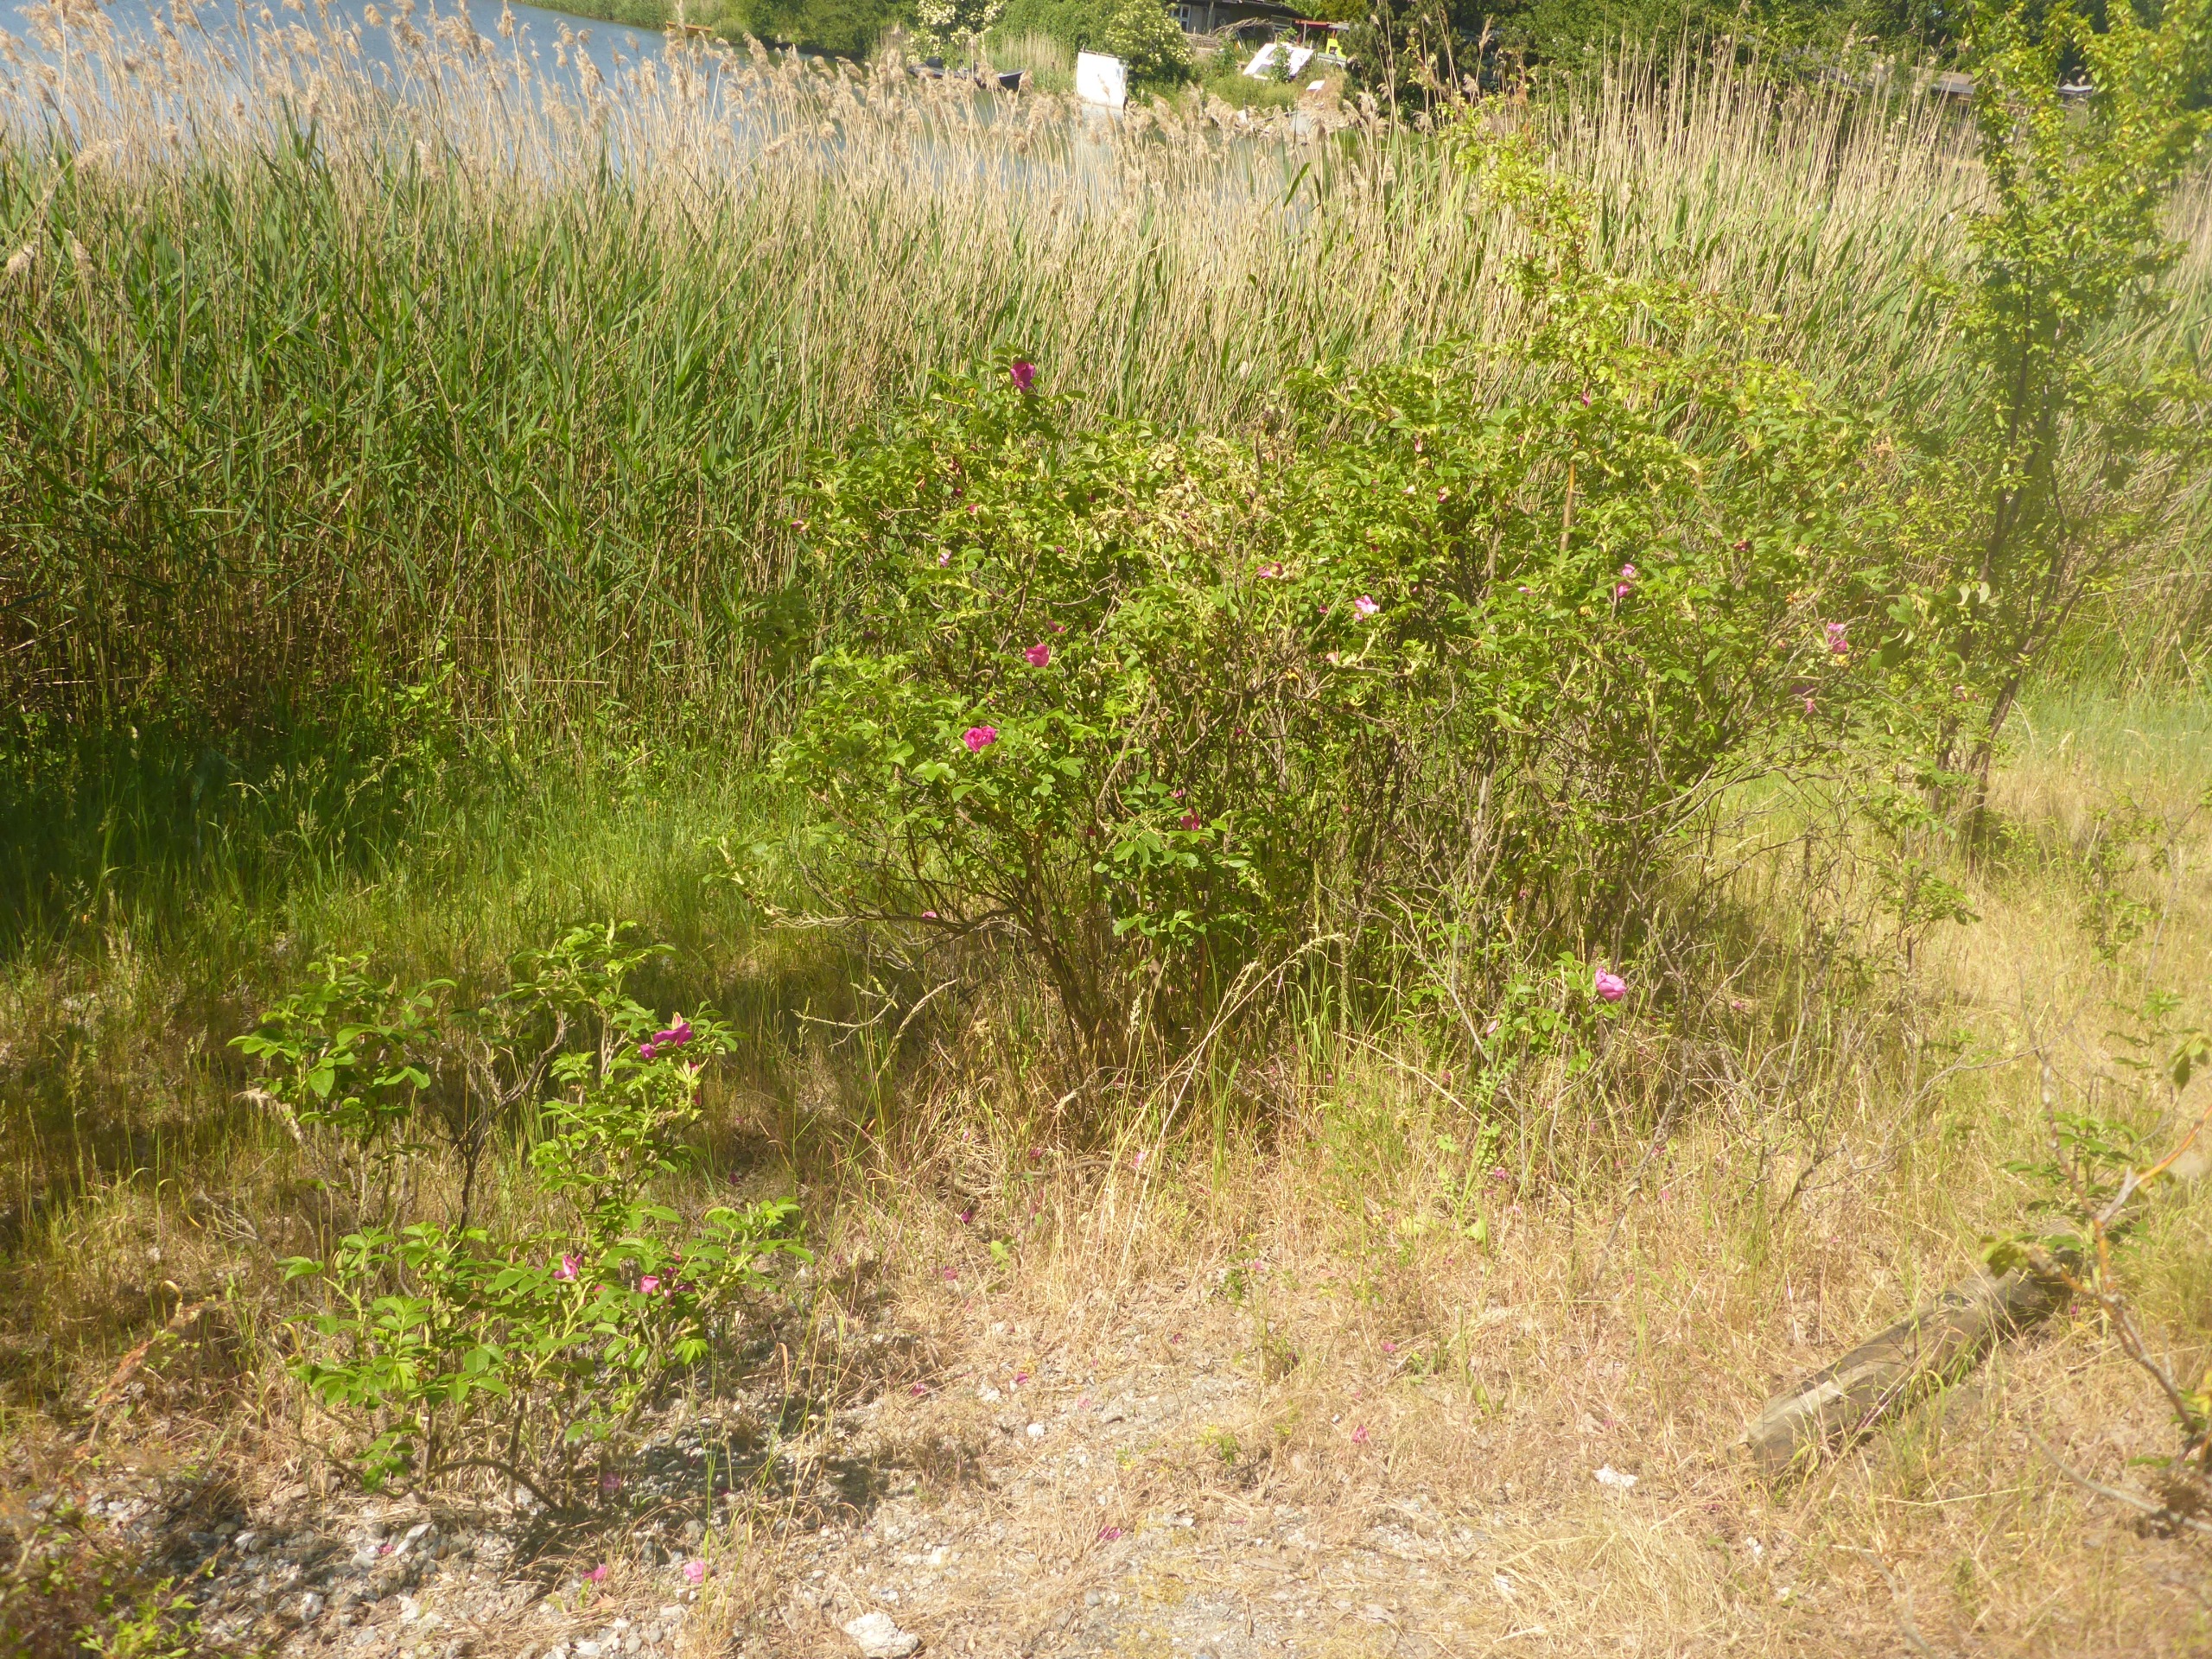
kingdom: Plantae
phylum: Tracheophyta
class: Magnoliopsida
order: Rosales
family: Rosaceae
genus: Rosa
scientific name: Rosa rugosa
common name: Rynket rose
